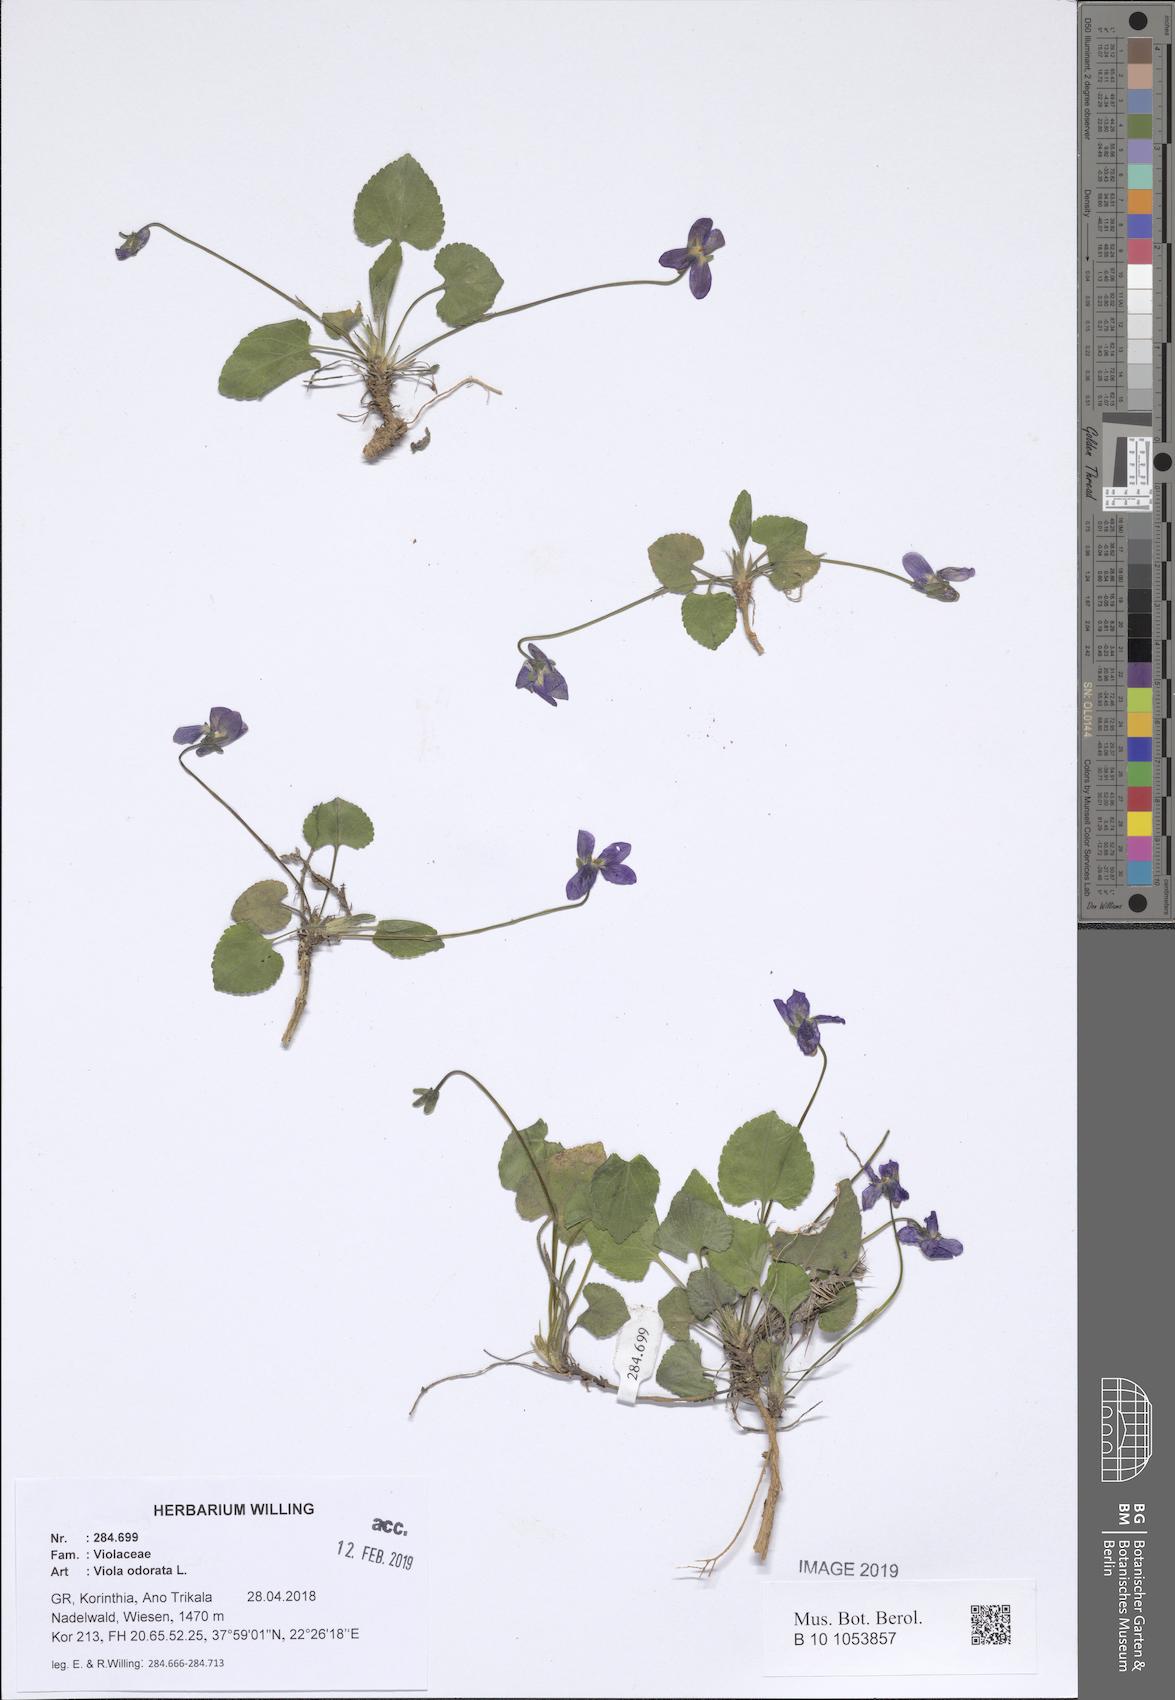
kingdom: Plantae
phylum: Tracheophyta
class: Magnoliopsida
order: Malpighiales
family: Violaceae
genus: Viola
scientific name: Viola odorata
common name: Sweet violet
